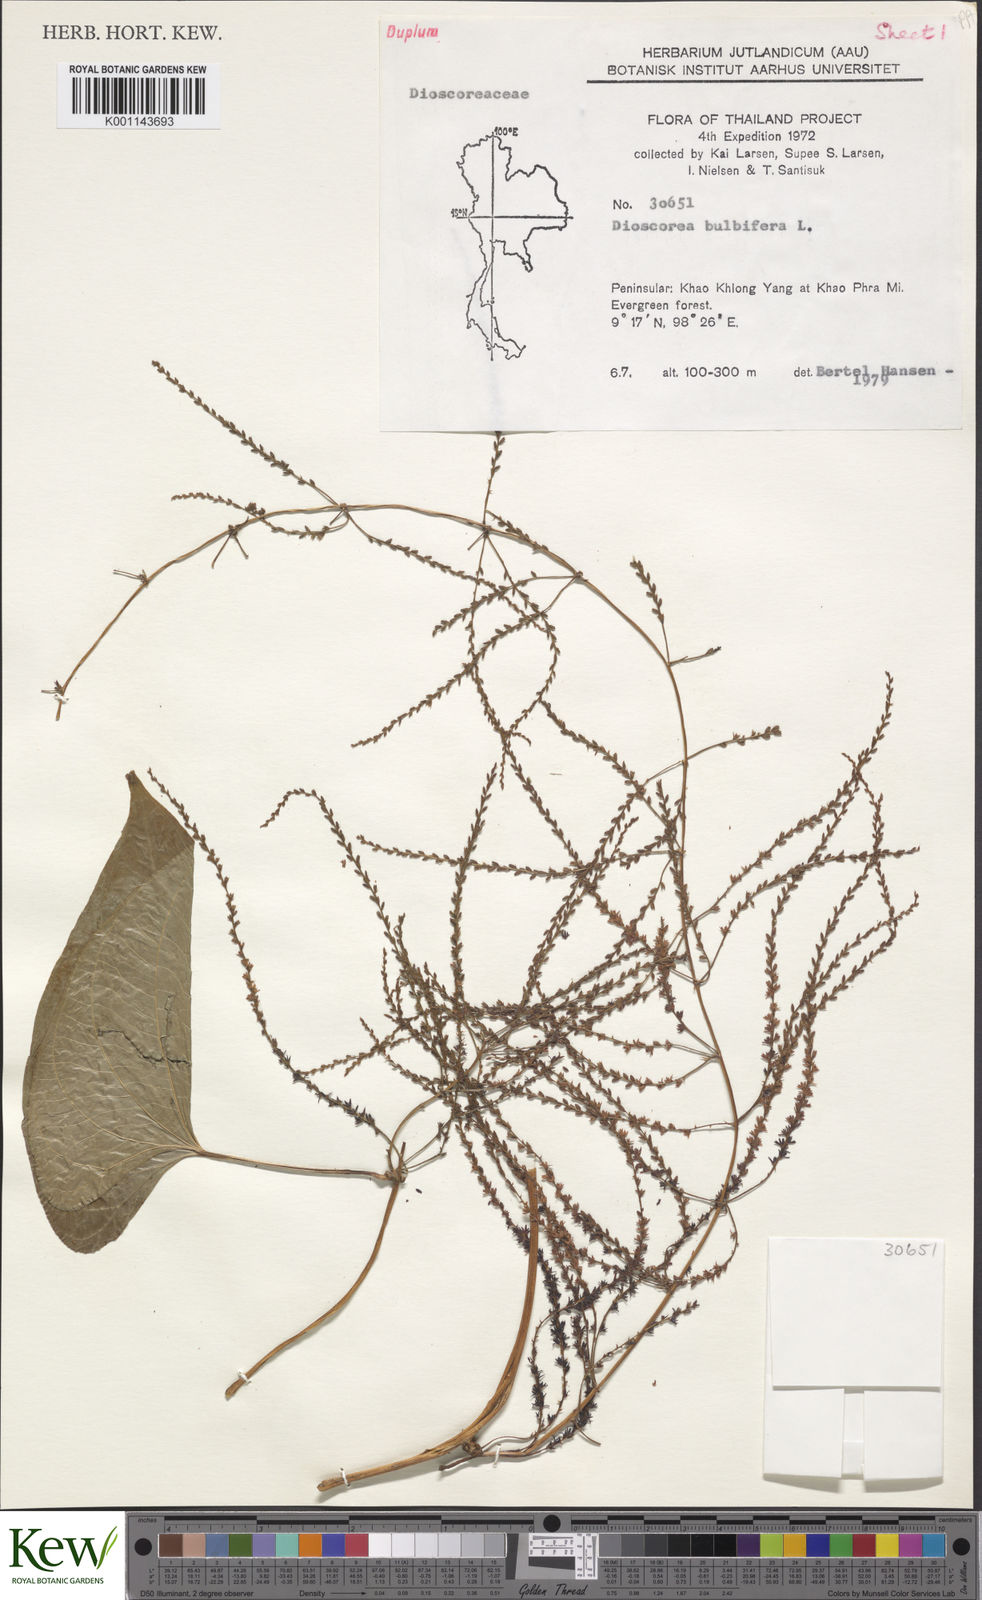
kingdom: Plantae
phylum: Tracheophyta
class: Liliopsida
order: Dioscoreales
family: Dioscoreaceae
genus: Dioscorea
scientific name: Dioscorea bulbifera
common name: Air yam
